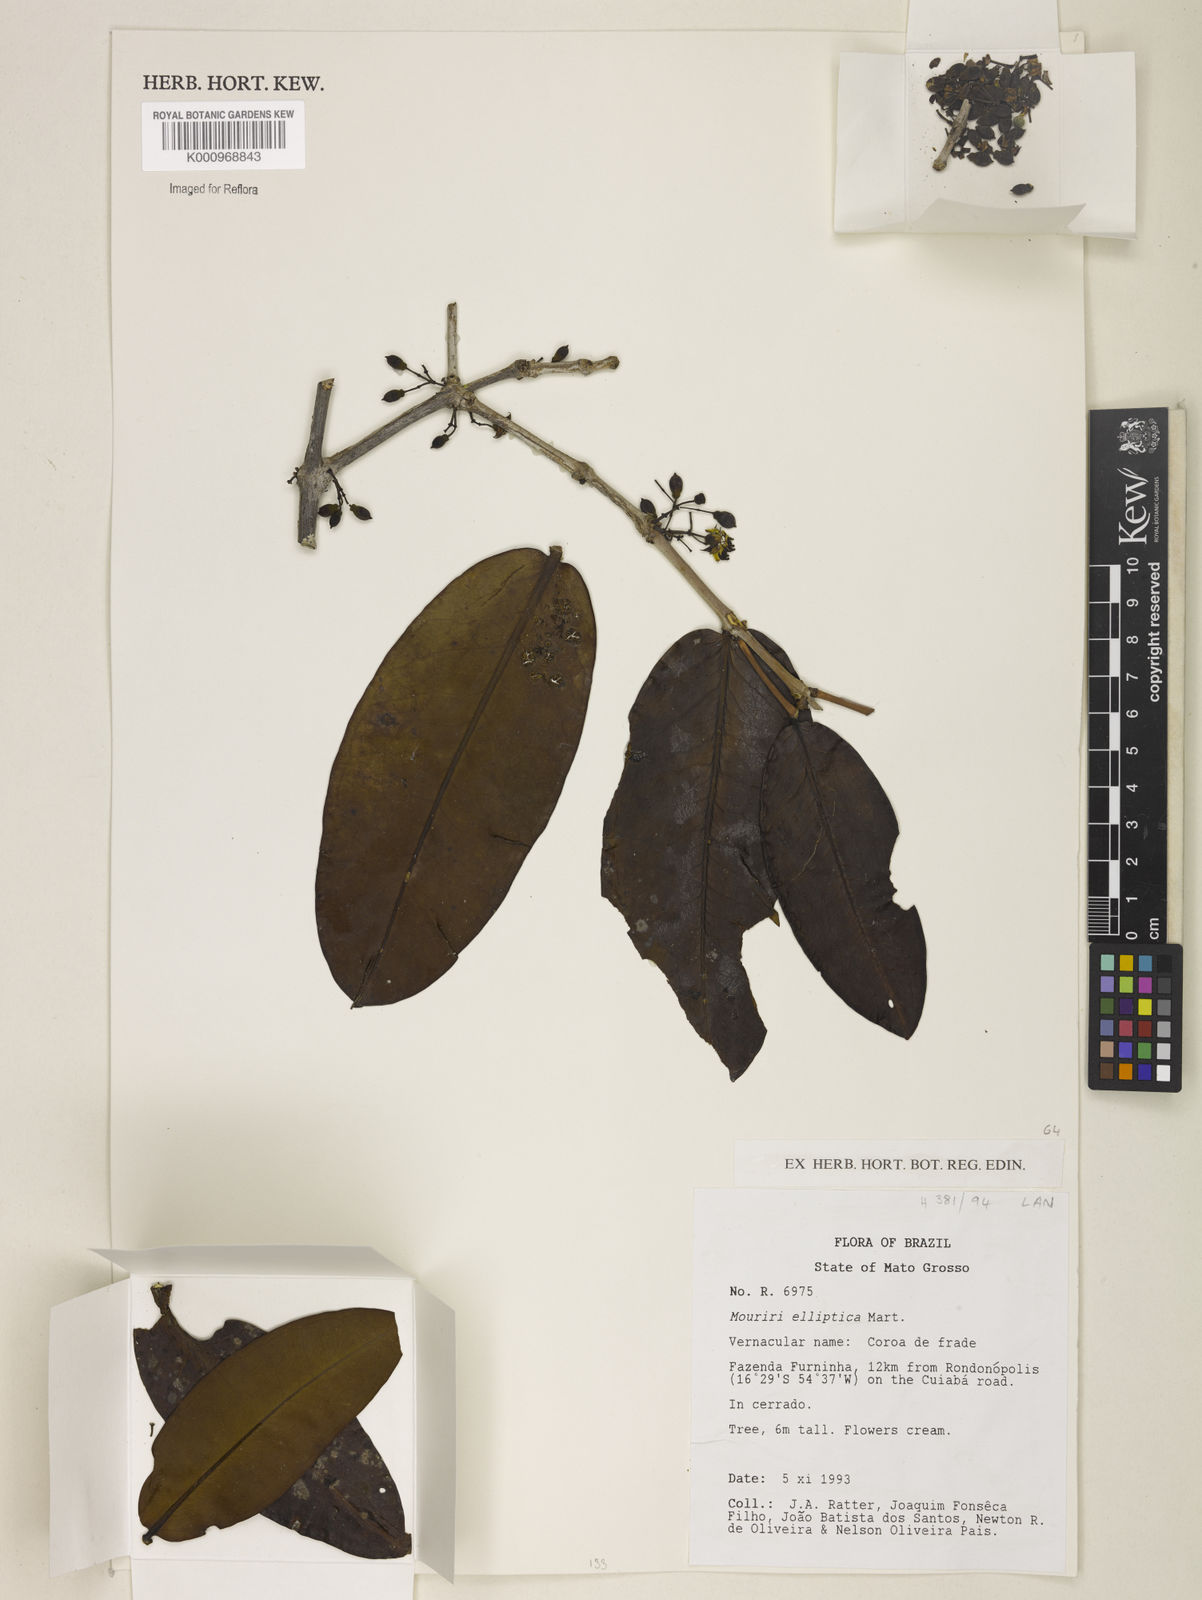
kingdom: Plantae
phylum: Tracheophyta
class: Magnoliopsida
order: Myrtales
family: Melastomataceae
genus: Mouriri
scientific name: Mouriri elliptica
